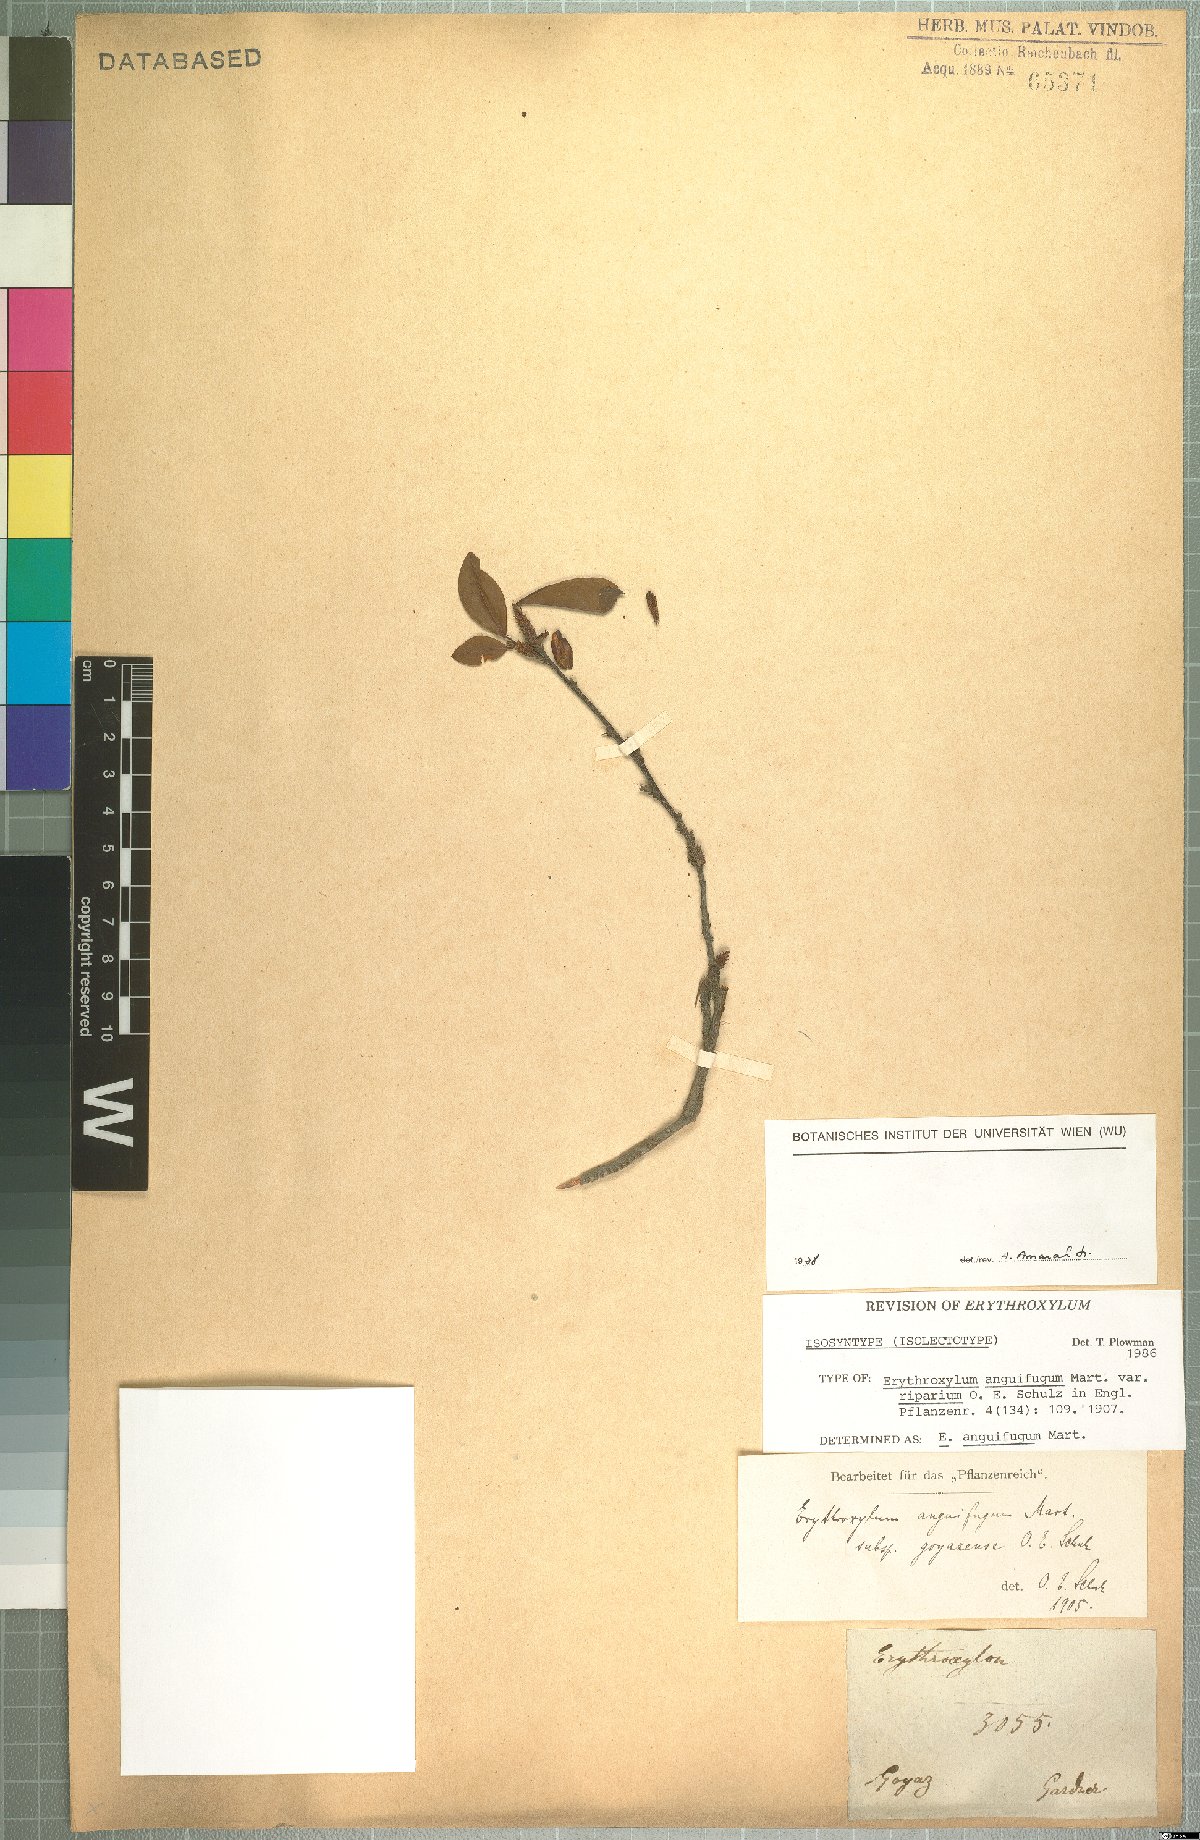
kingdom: Plantae
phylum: Tracheophyta
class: Magnoliopsida
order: Malpighiales
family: Erythroxylaceae
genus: Erythroxylum
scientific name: Erythroxylum anguifugum
